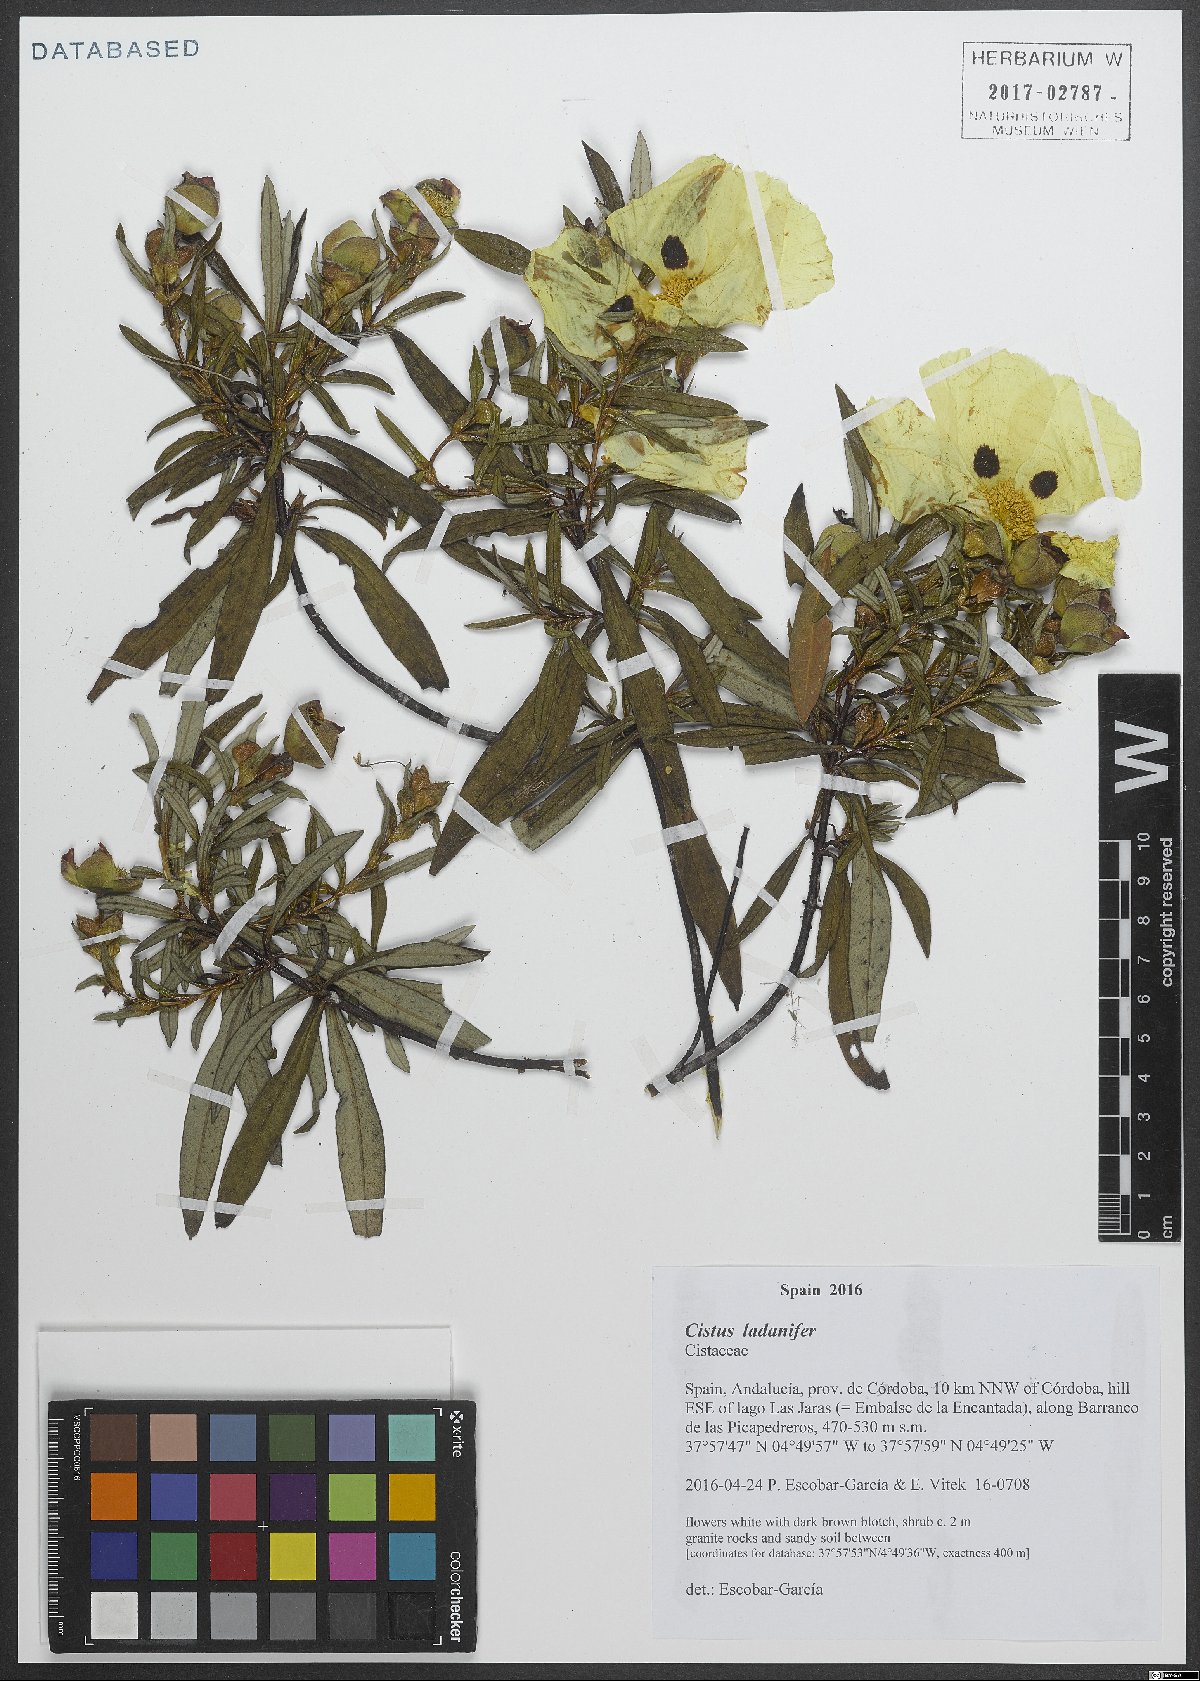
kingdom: Plantae
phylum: Tracheophyta
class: Magnoliopsida
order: Malvales
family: Cistaceae
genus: Cistus
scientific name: Cistus ladanifer
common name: Common gum cistus
